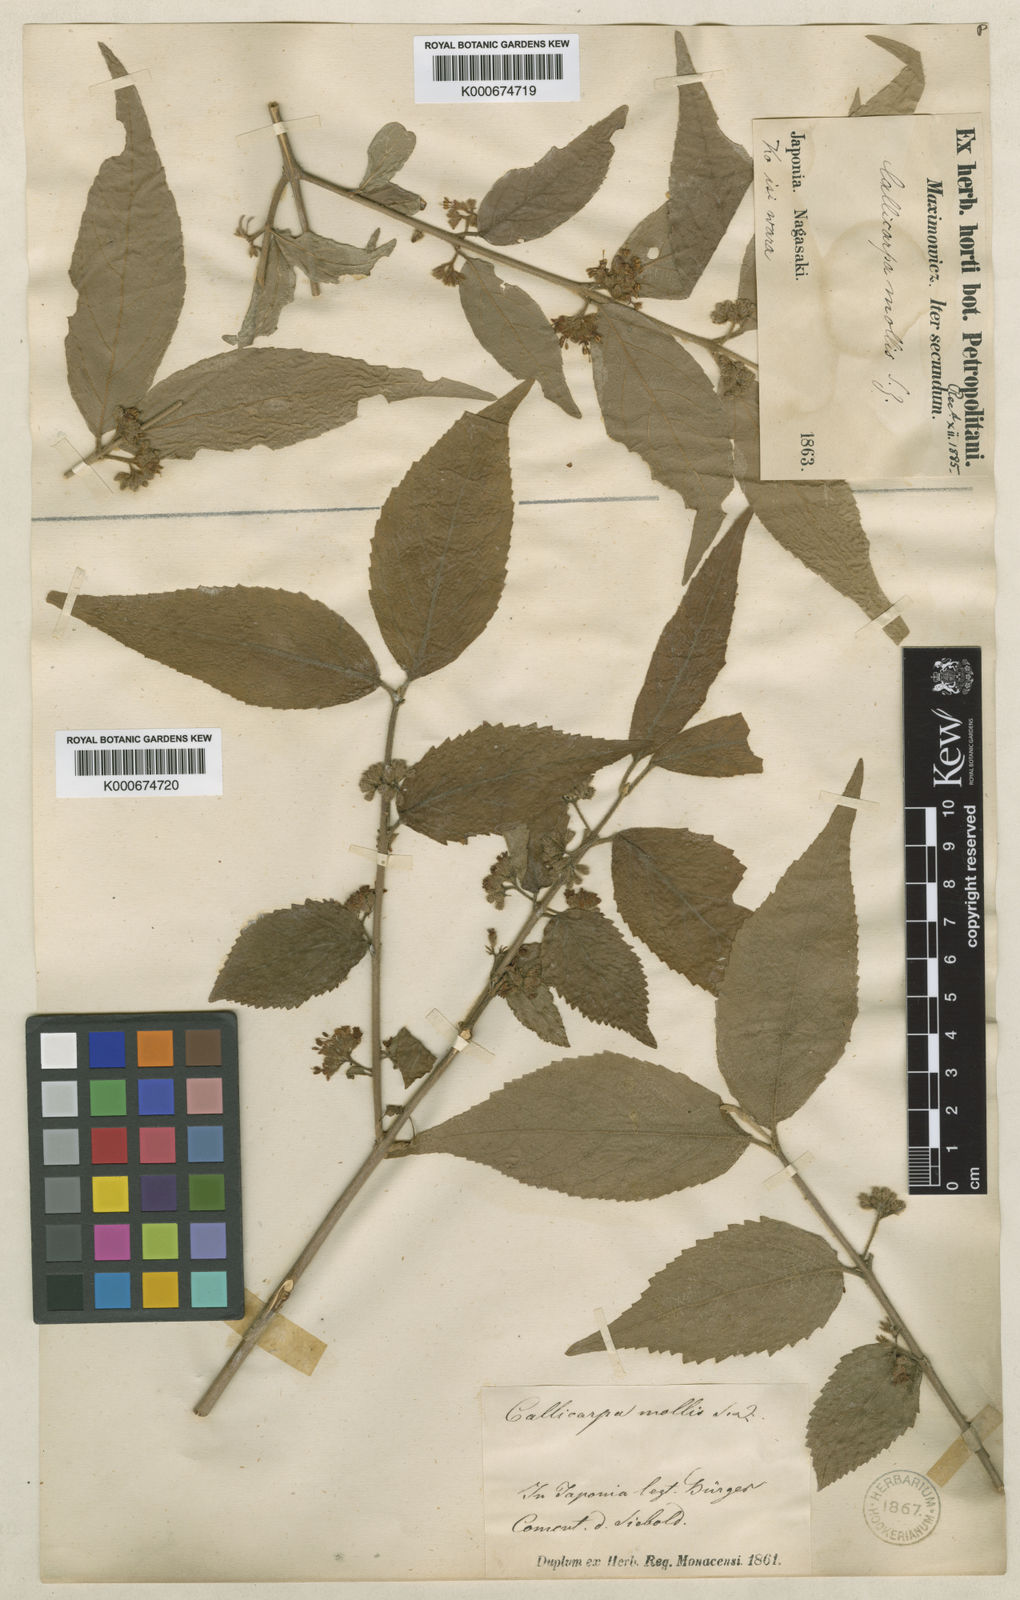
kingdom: Plantae
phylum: Tracheophyta
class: Magnoliopsida
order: Lamiales
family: Lamiaceae
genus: Callicarpa
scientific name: Callicarpa mollis
